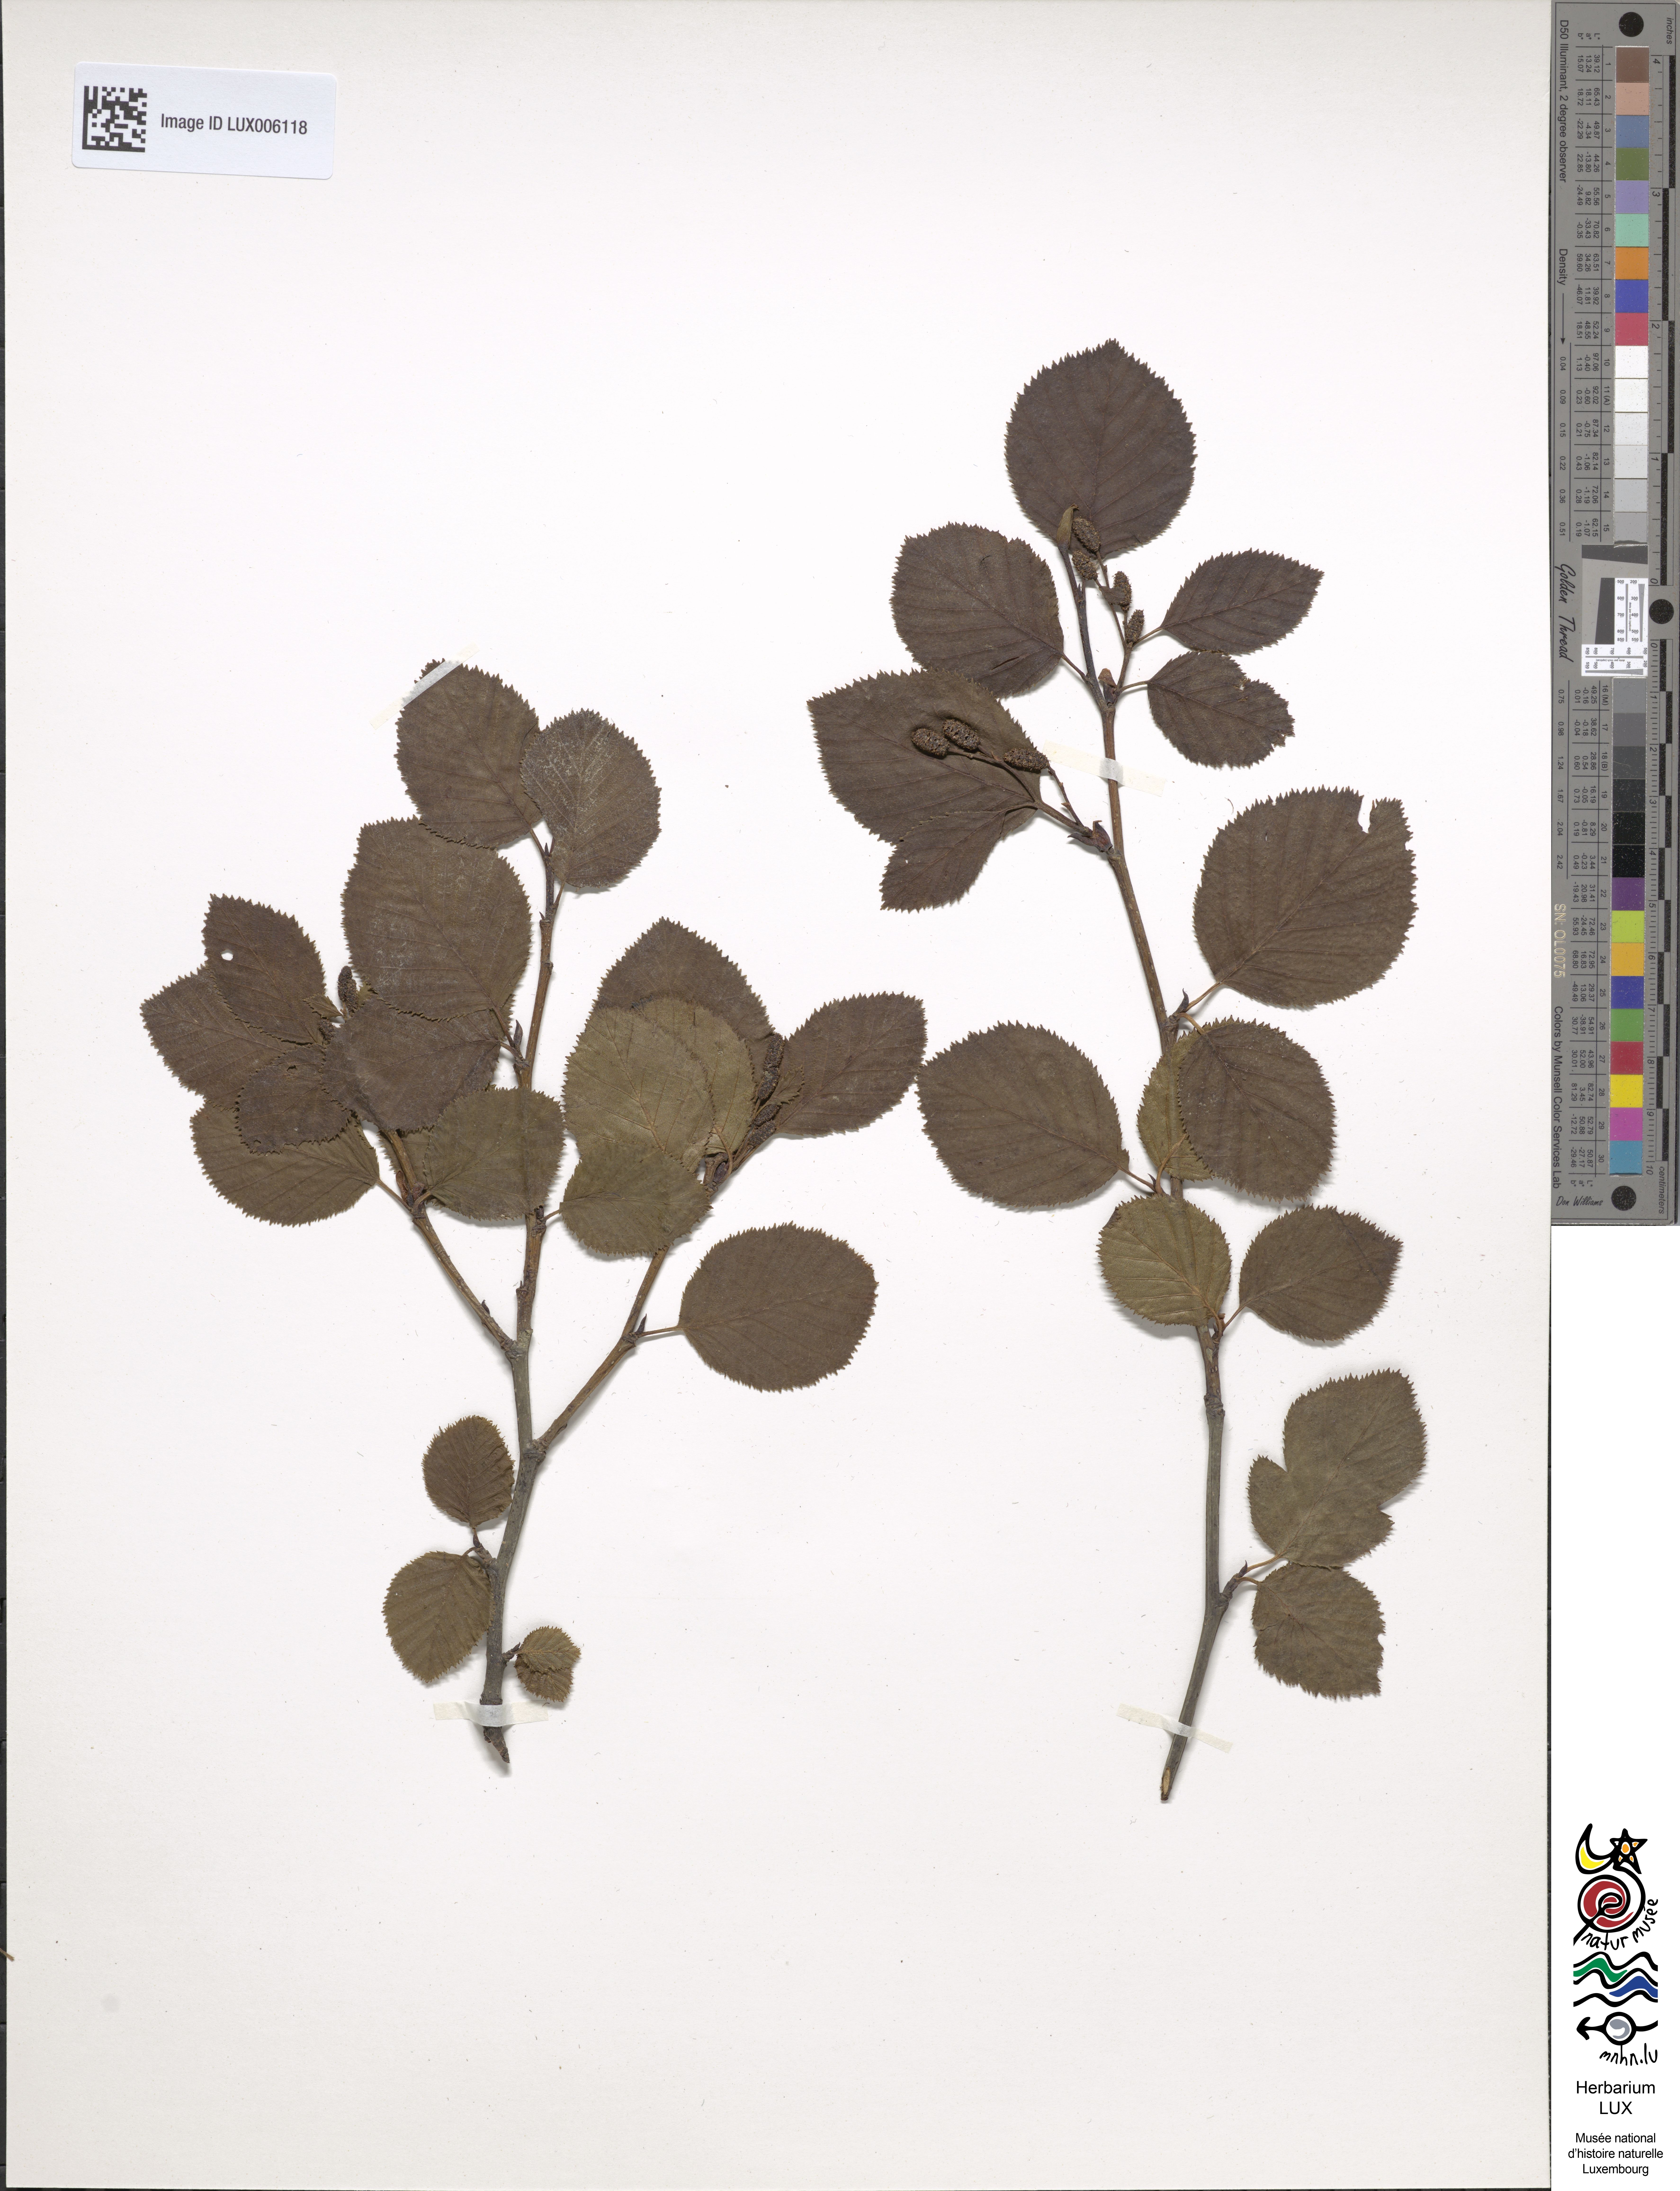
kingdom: Plantae
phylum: Tracheophyta
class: Magnoliopsida
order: Fagales
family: Betulaceae
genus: Alnus
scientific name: Alnus alnobetula
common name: Green alder
